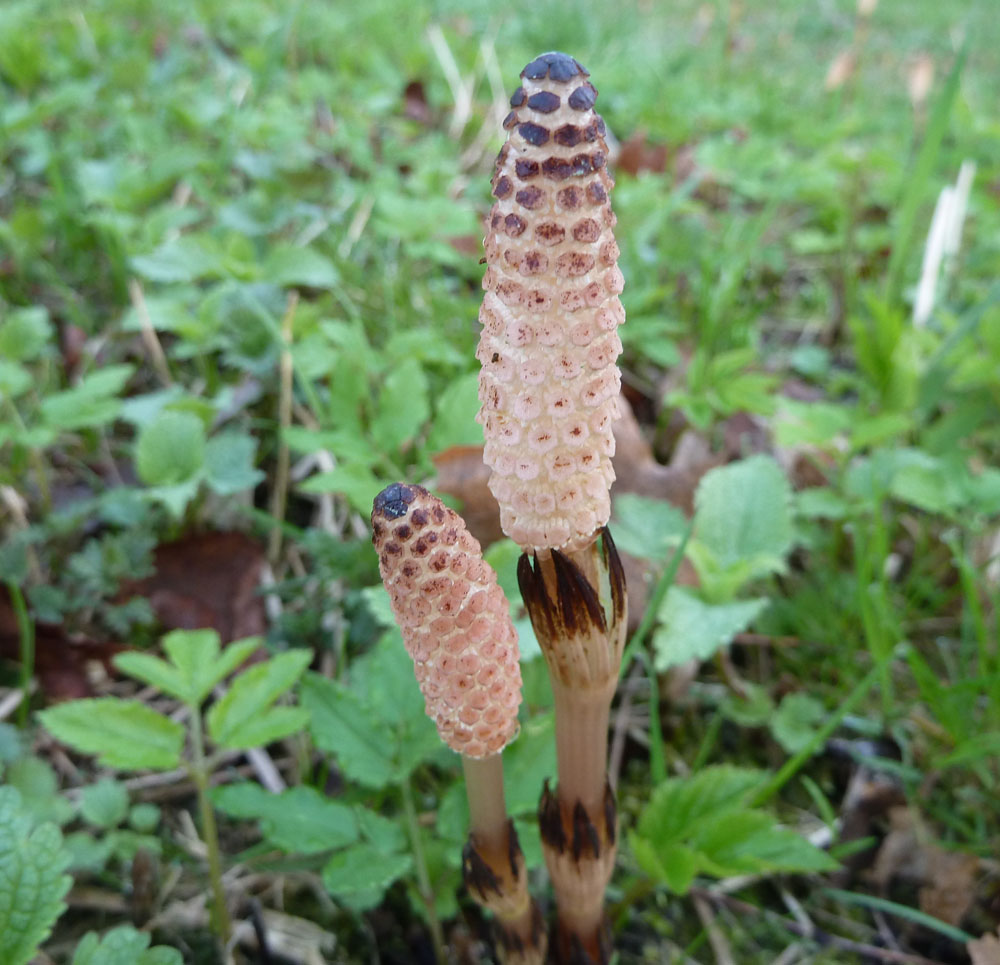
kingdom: Plantae
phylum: Tracheophyta
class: Polypodiopsida
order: Equisetales
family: Equisetaceae
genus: Equisetum
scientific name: Equisetum arvense
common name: Field horsetail
